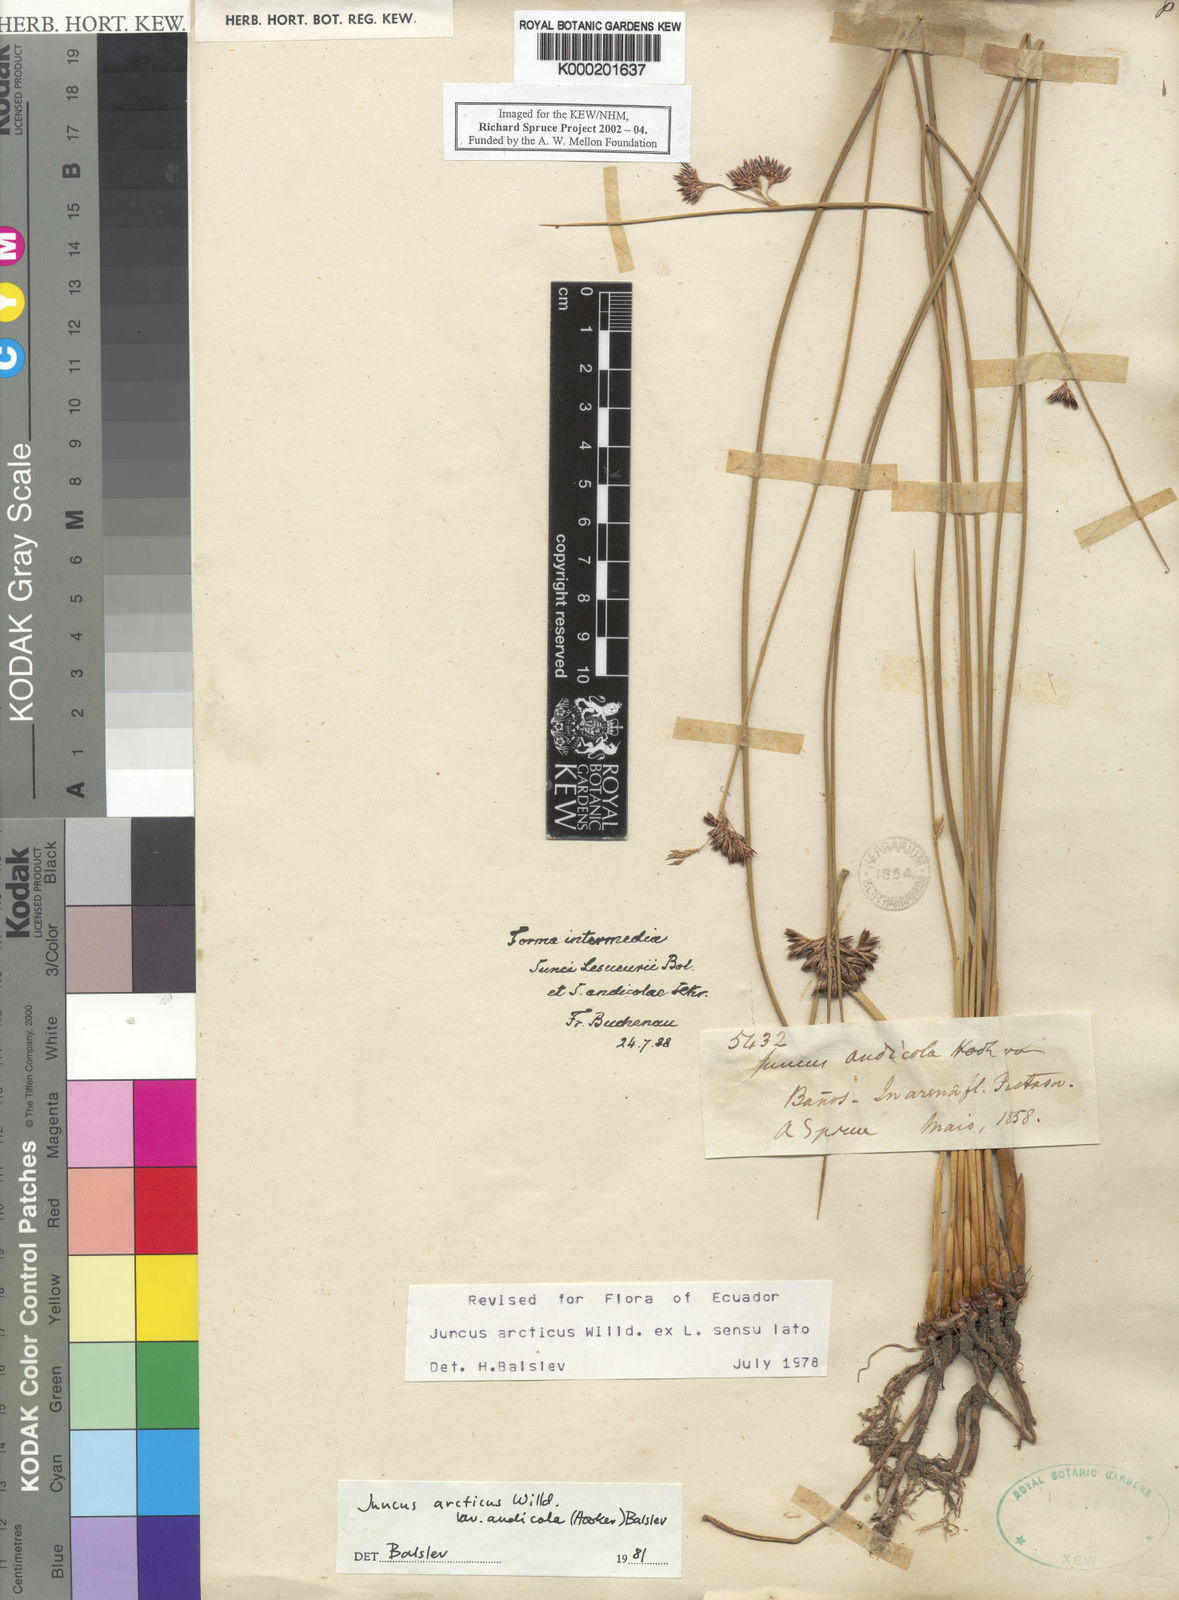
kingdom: Plantae
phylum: Tracheophyta
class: Liliopsida
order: Poales
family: Juncaceae
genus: Juncus
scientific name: Juncus balticus
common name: Baltic rush
